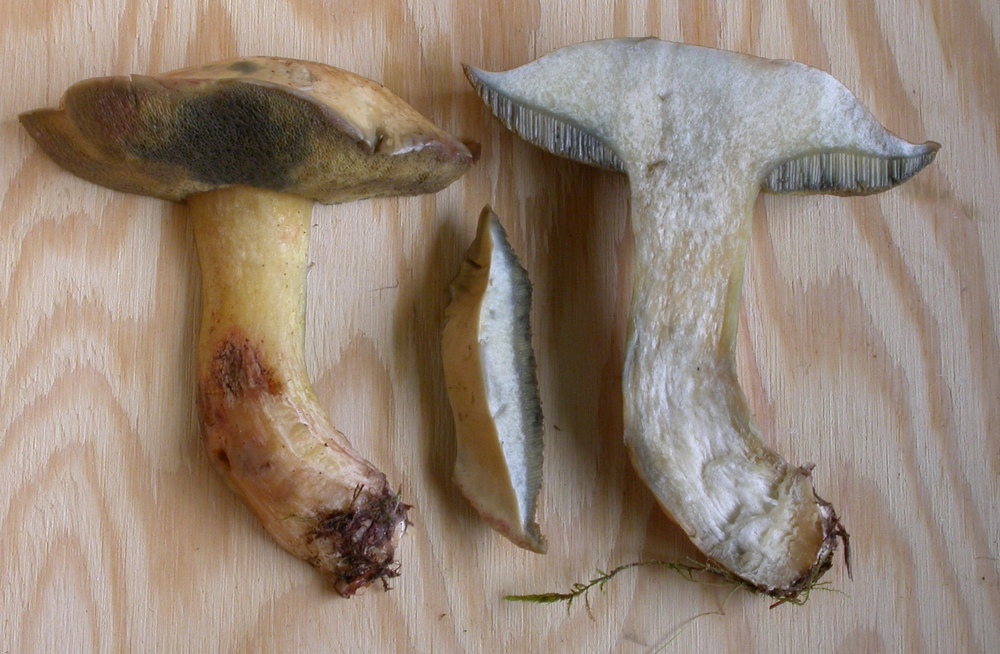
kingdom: Fungi
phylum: Basidiomycota
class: Agaricomycetes
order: Boletales
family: Suillaceae
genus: Suillus
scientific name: Suillus variegatus
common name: broget slimrørhat
